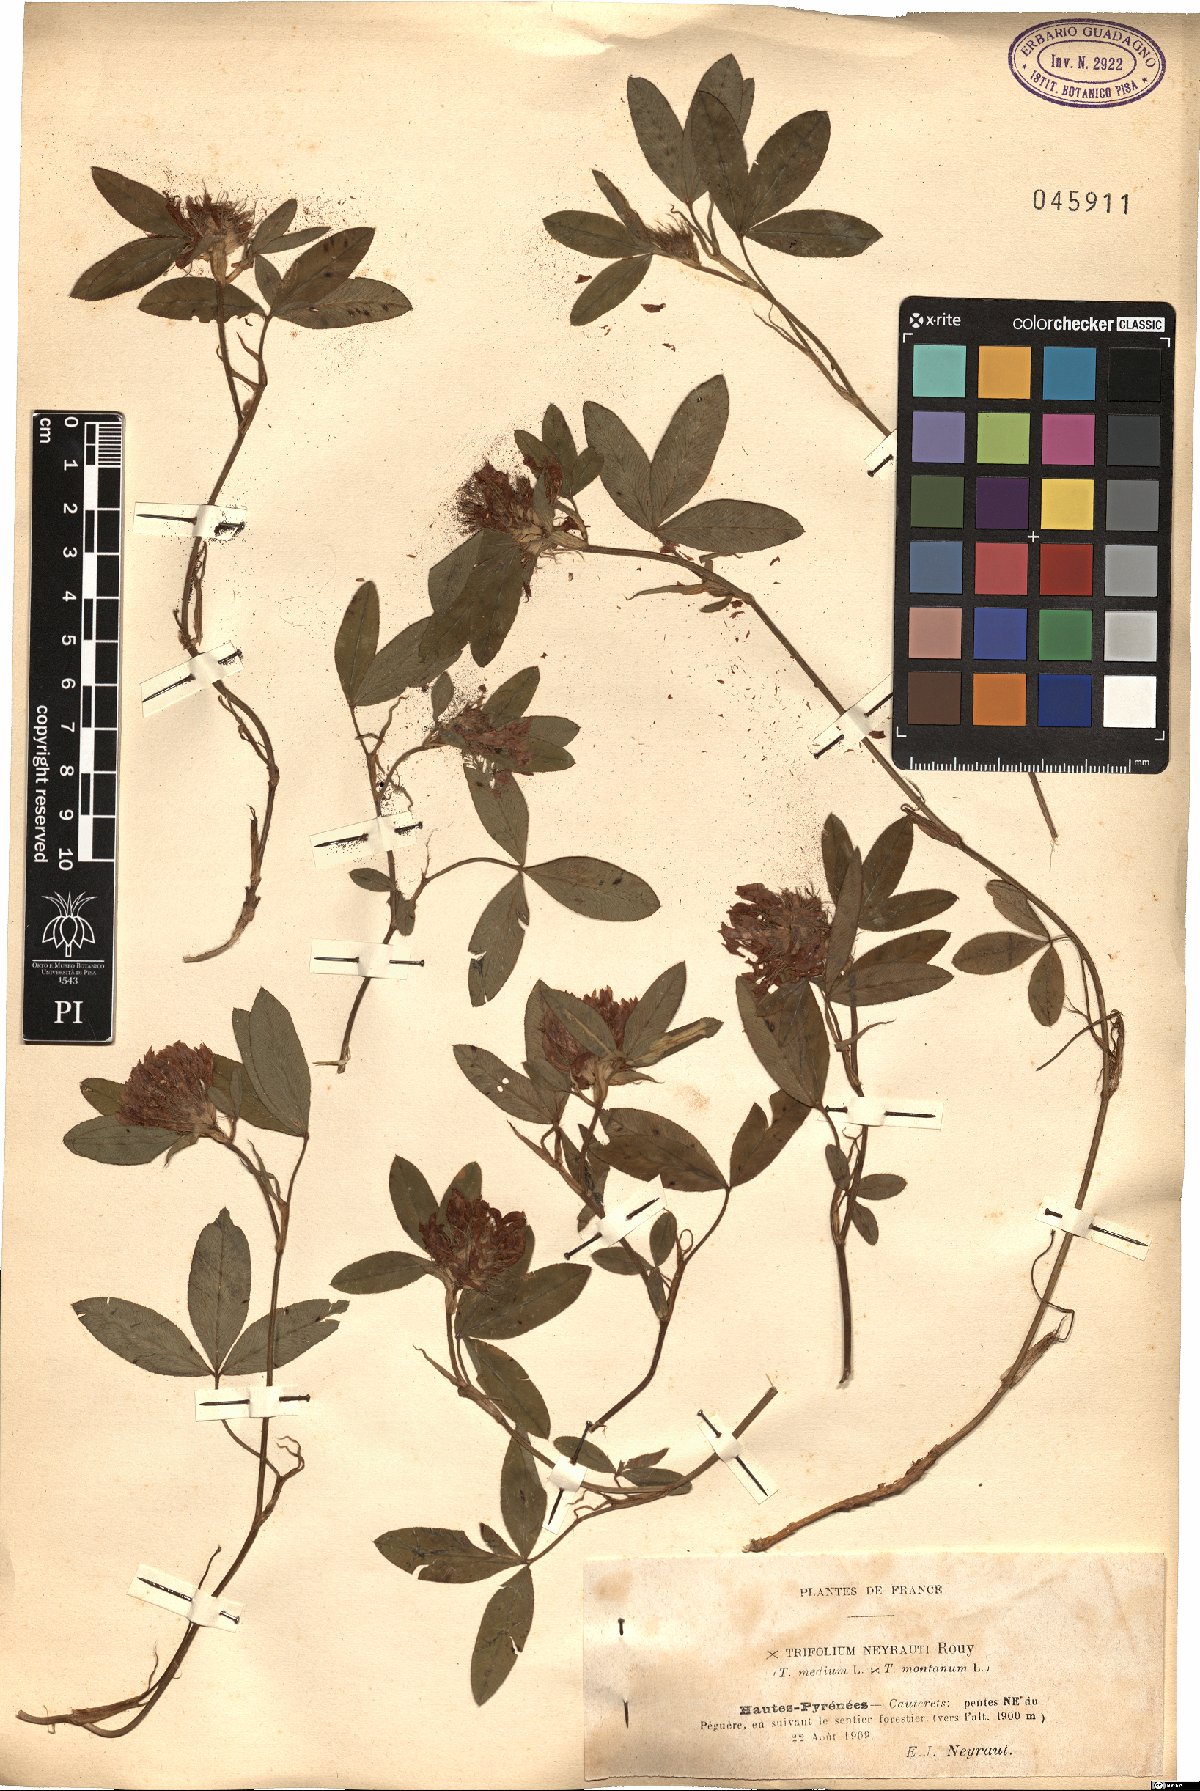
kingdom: Plantae
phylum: Tracheophyta
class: Magnoliopsida
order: Fabales
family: Fabaceae
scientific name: Fabaceae
